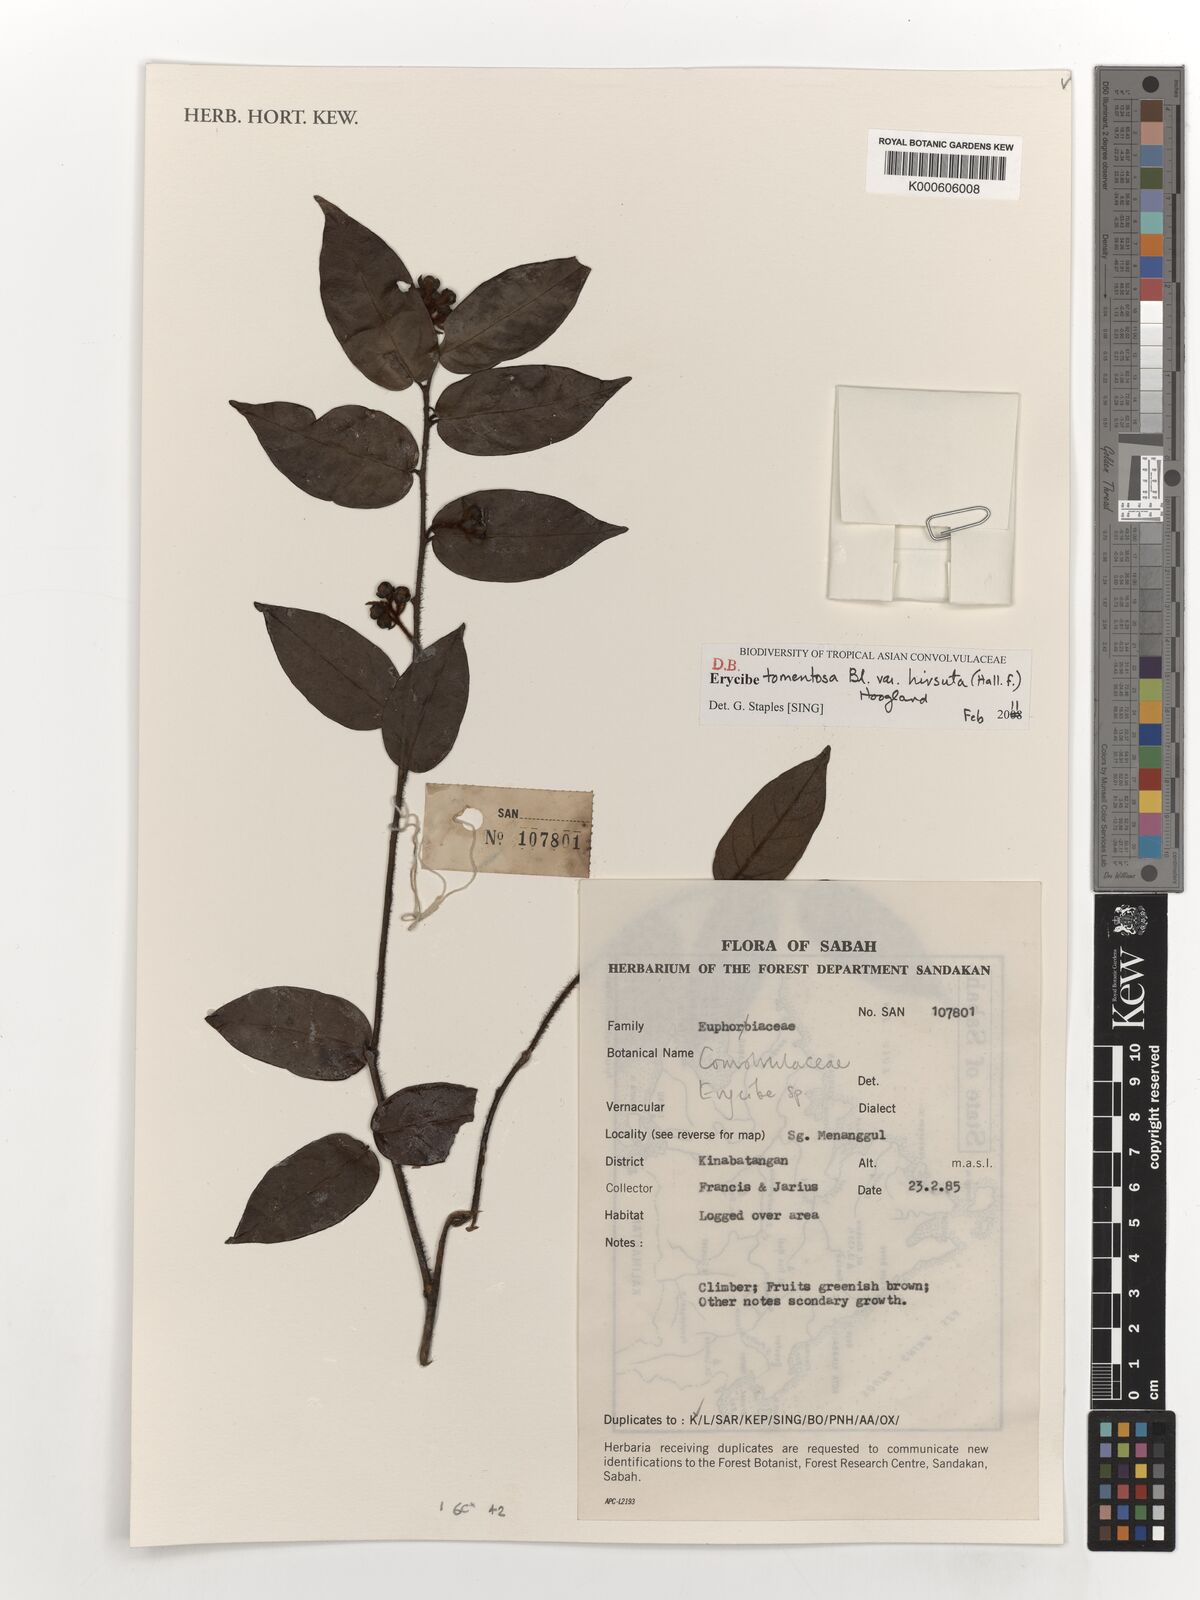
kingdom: Plantae
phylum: Tracheophyta
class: Magnoliopsida
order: Solanales
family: Convolvulaceae
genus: Erycibe
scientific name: Erycibe tomentosa
